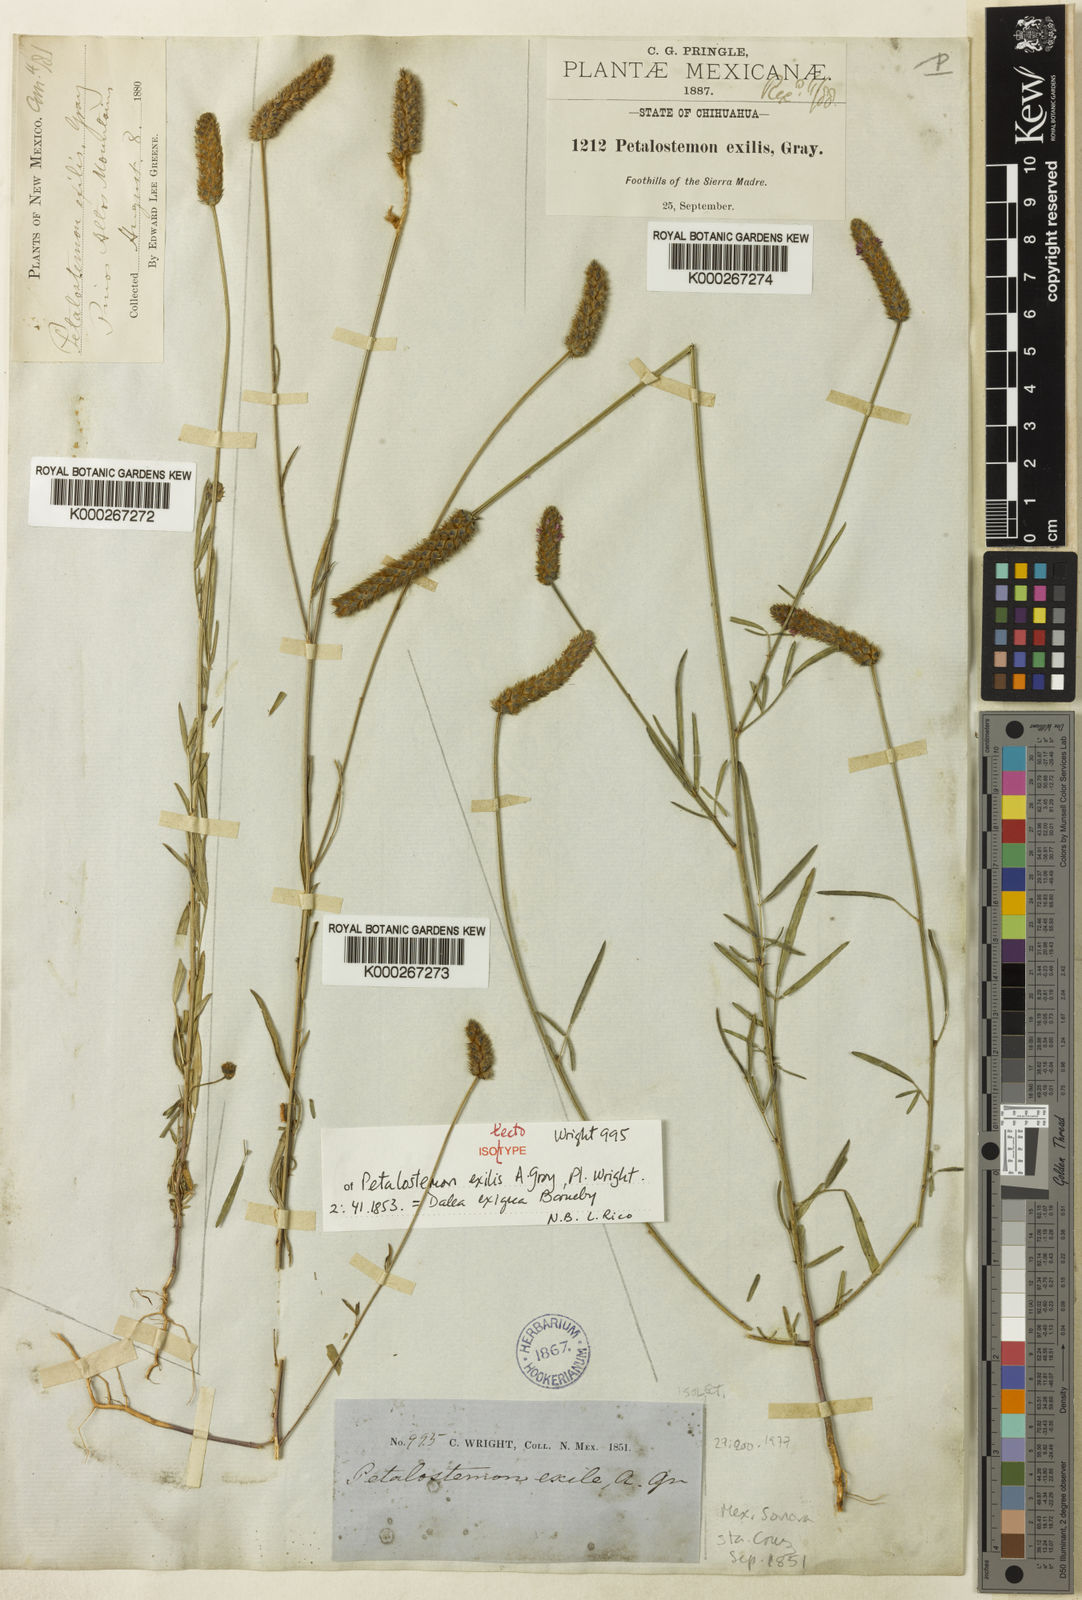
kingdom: Plantae
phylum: Tracheophyta
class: Magnoliopsida
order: Fabales
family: Fabaceae
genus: Dalea
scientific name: Dalea exigua
